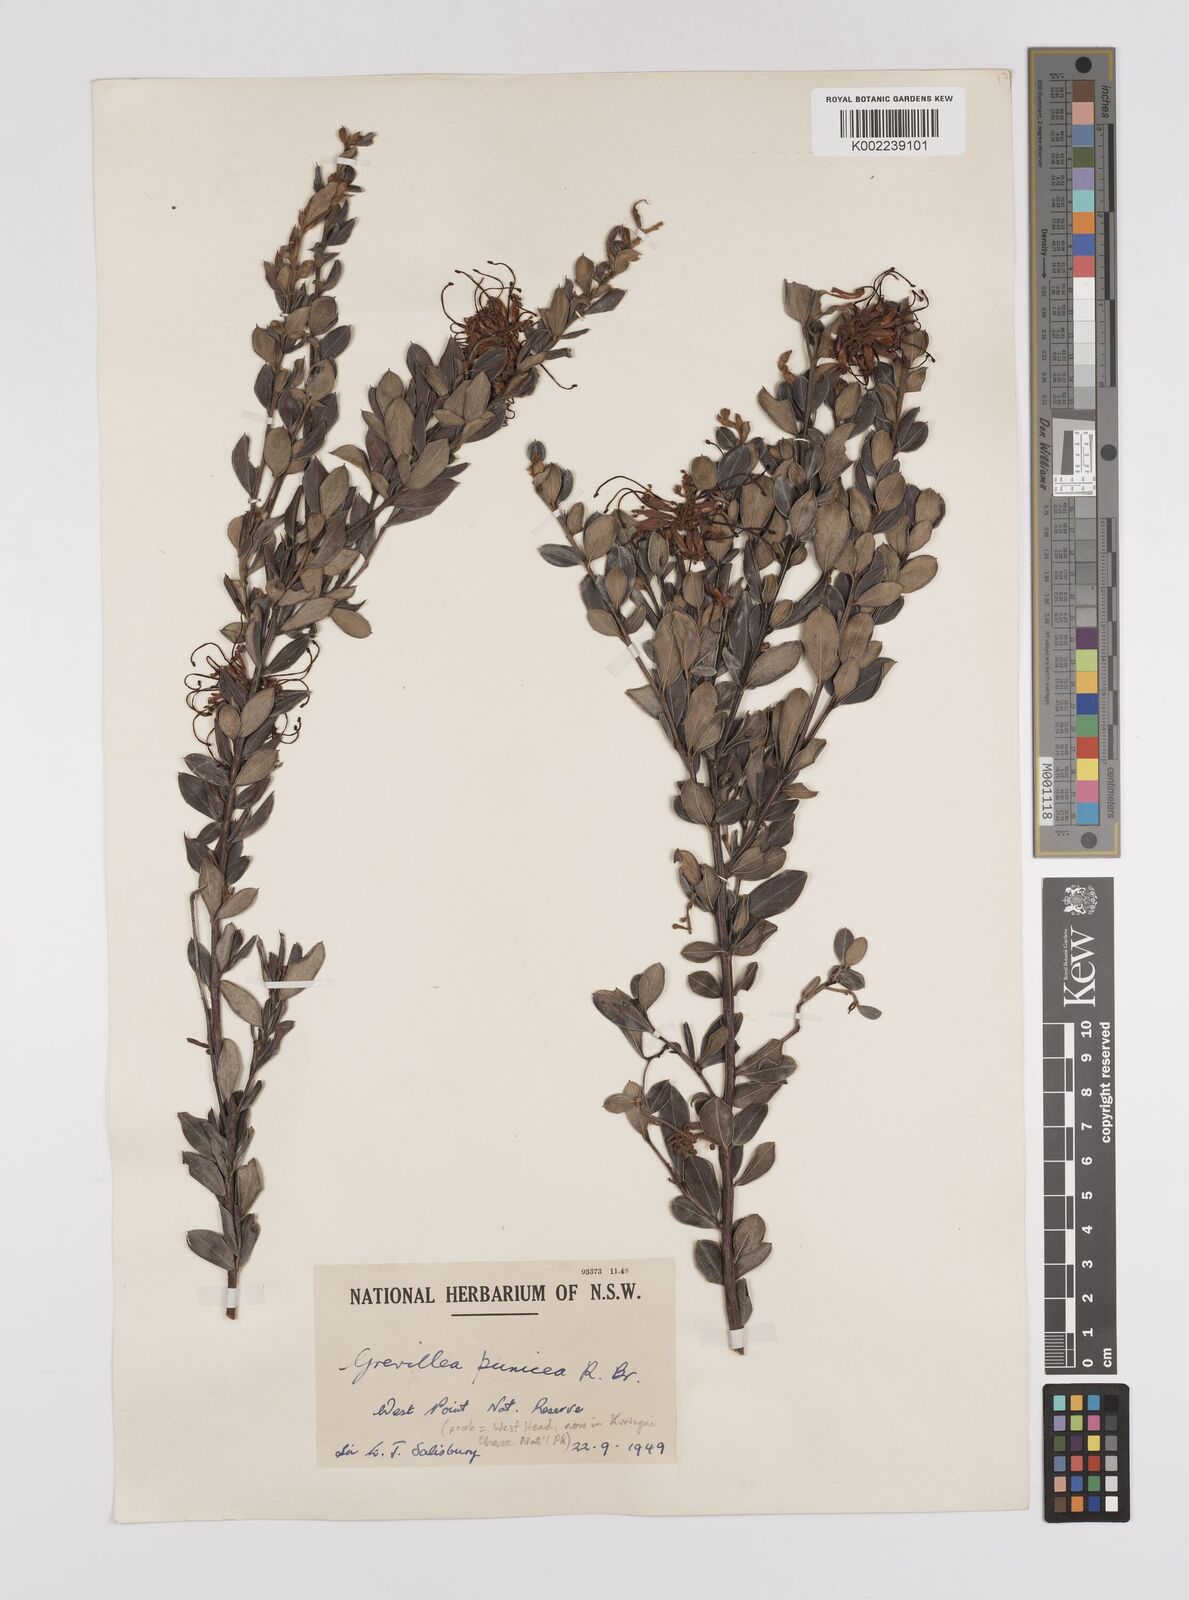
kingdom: Plantae
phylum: Tracheophyta
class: Magnoliopsida
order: Proteales
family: Proteaceae
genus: Grevillea
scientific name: Grevillea speciosa
